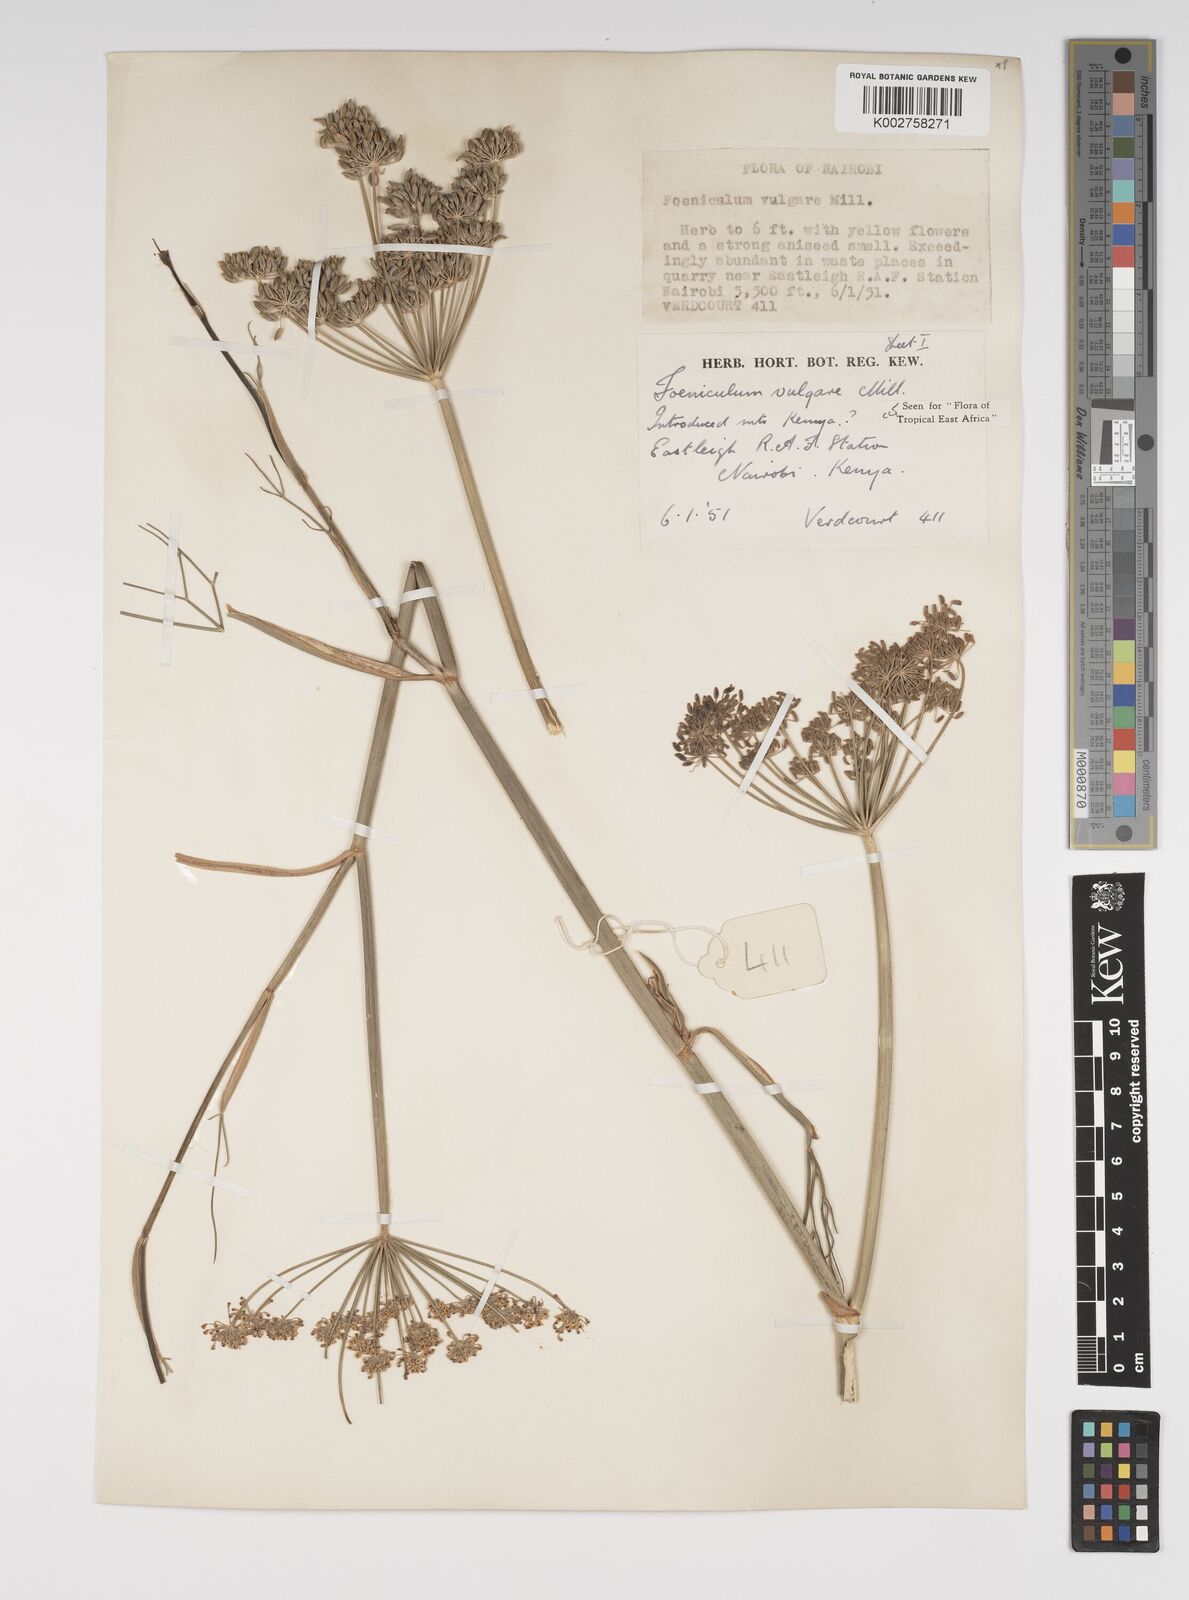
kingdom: Plantae
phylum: Tracheophyta
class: Magnoliopsida
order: Apiales
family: Apiaceae
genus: Foeniculum
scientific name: Foeniculum vulgare
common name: Fennel
